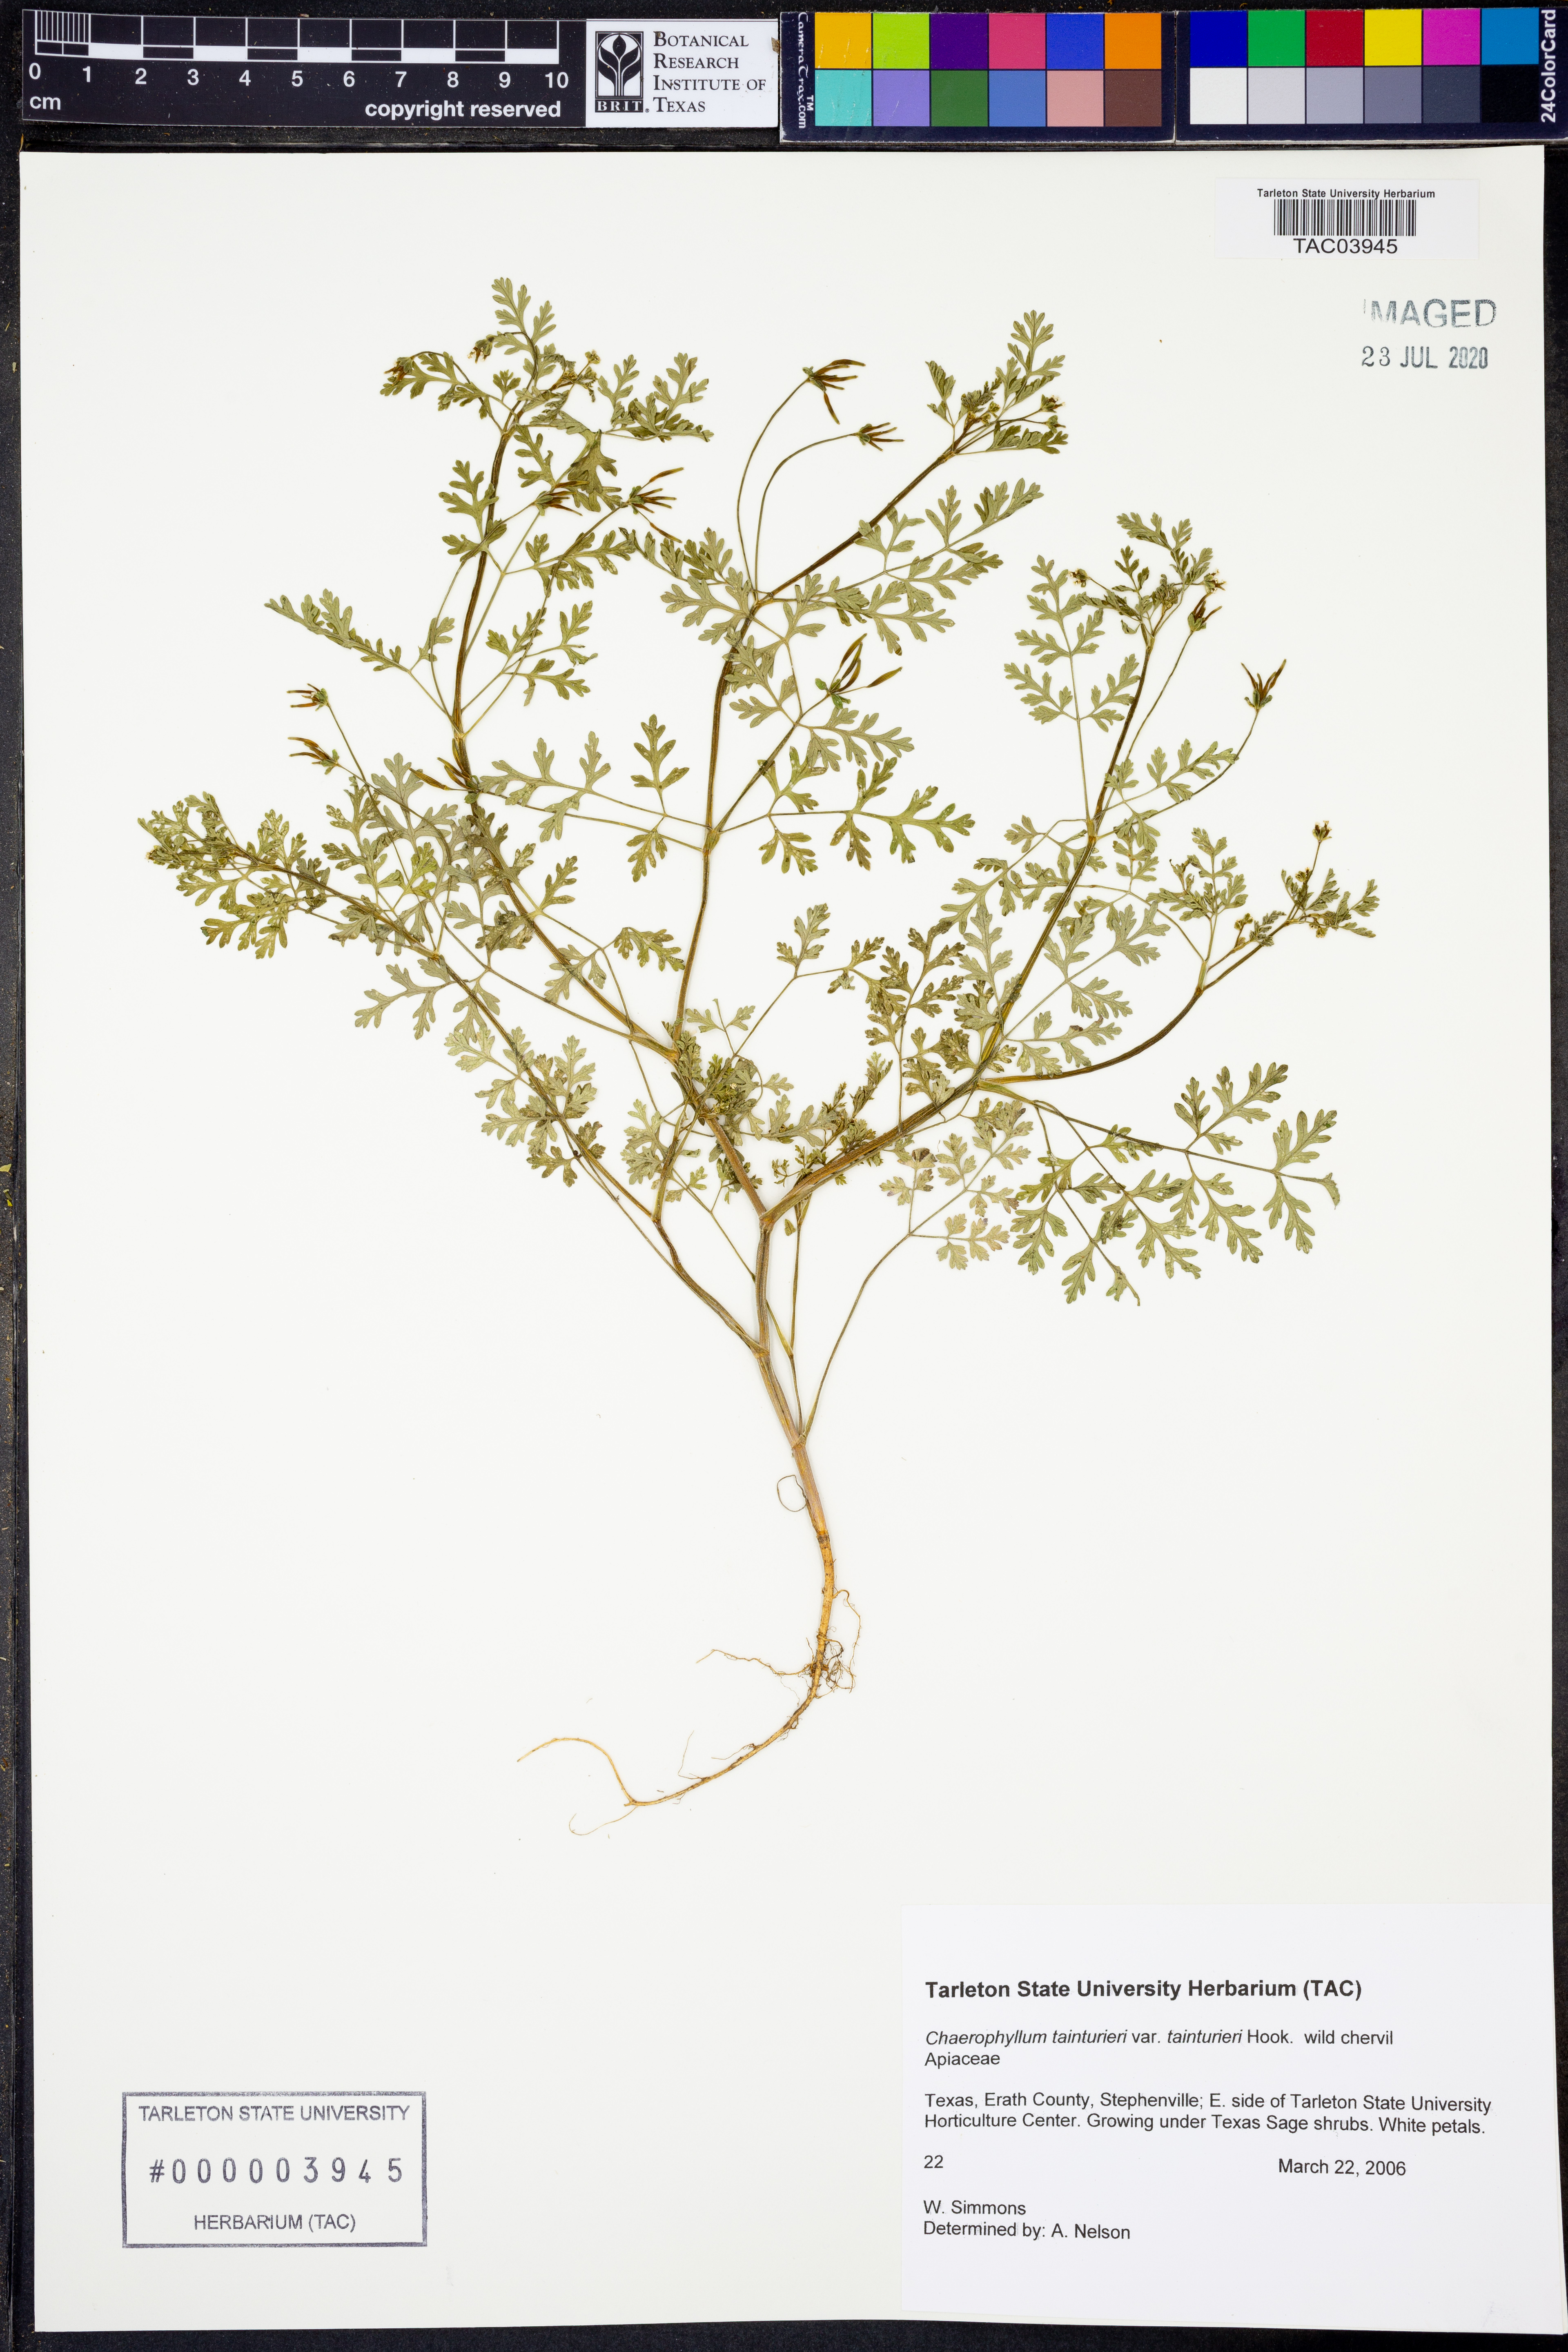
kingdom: Plantae
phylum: Tracheophyta
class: Magnoliopsida
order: Apiales
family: Apiaceae
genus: Chaerophyllum
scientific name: Chaerophyllum tainturieri
